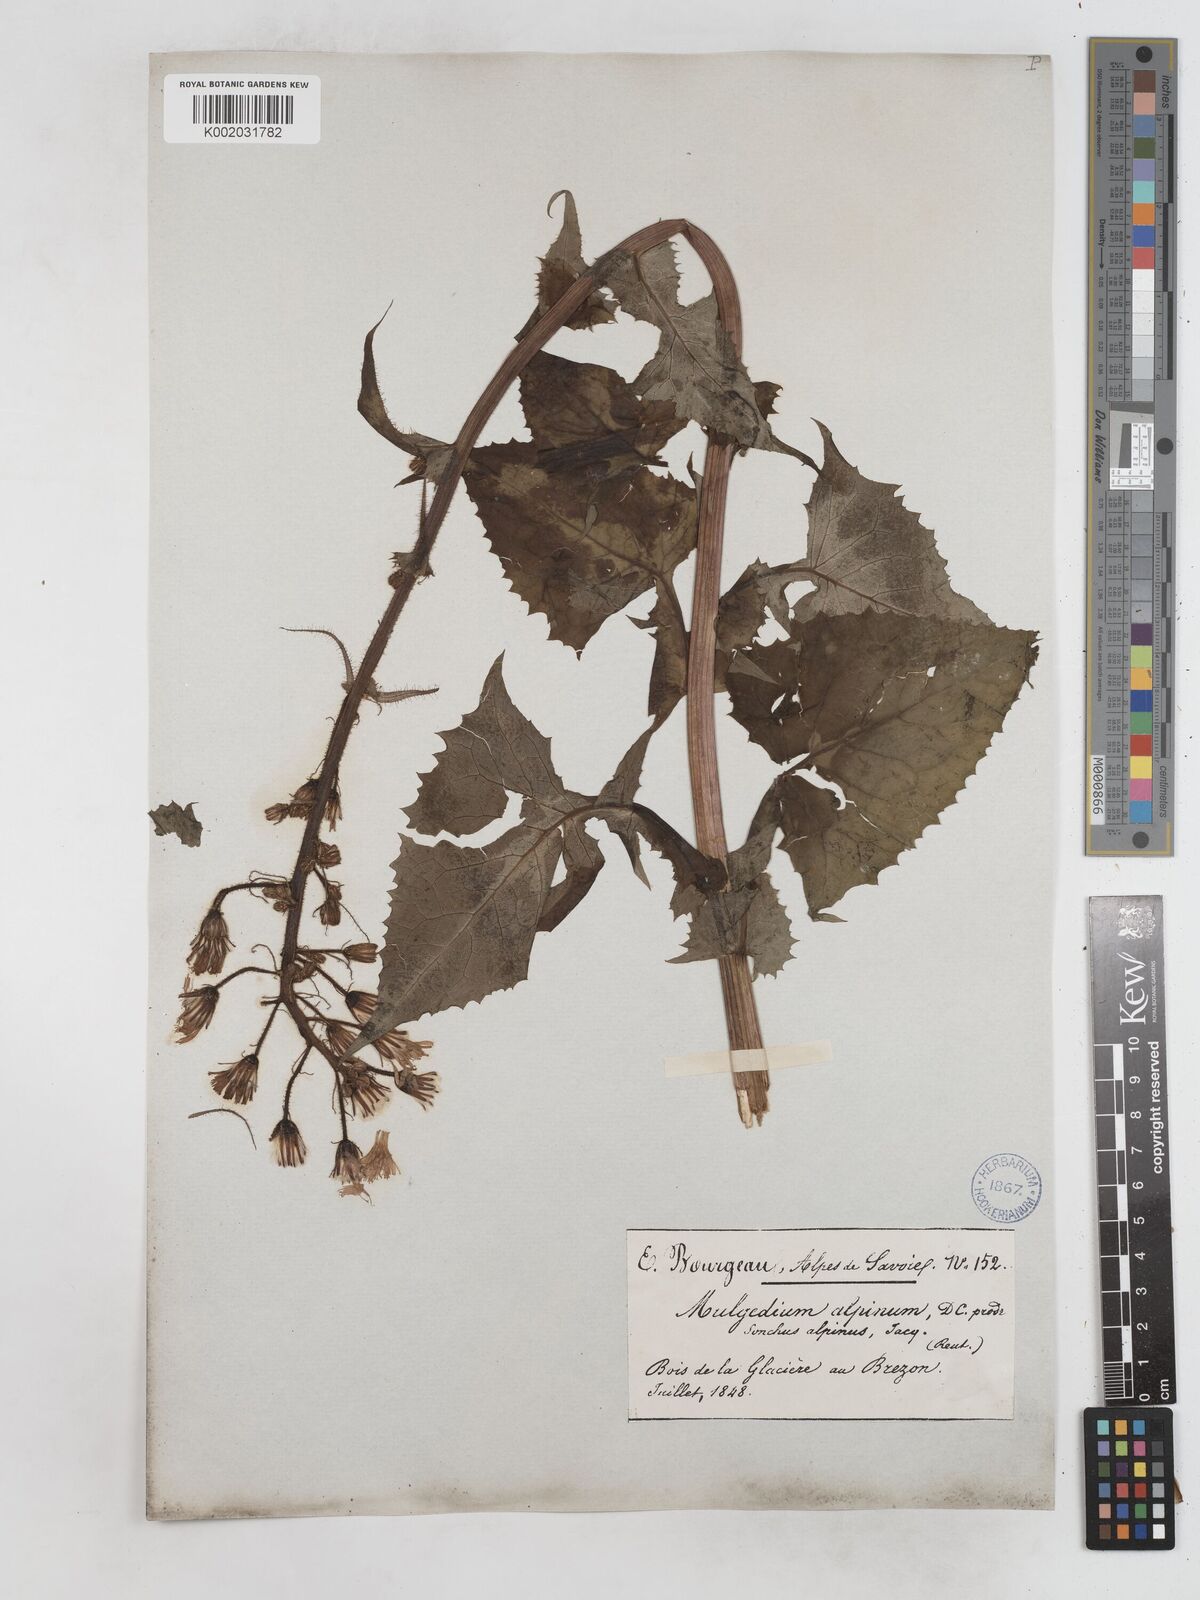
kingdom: Plantae
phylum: Tracheophyta
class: Magnoliopsida
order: Asterales
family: Asteraceae
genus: Cicerbita
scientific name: Cicerbita alpina
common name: Alpine blue-sow-thistle
